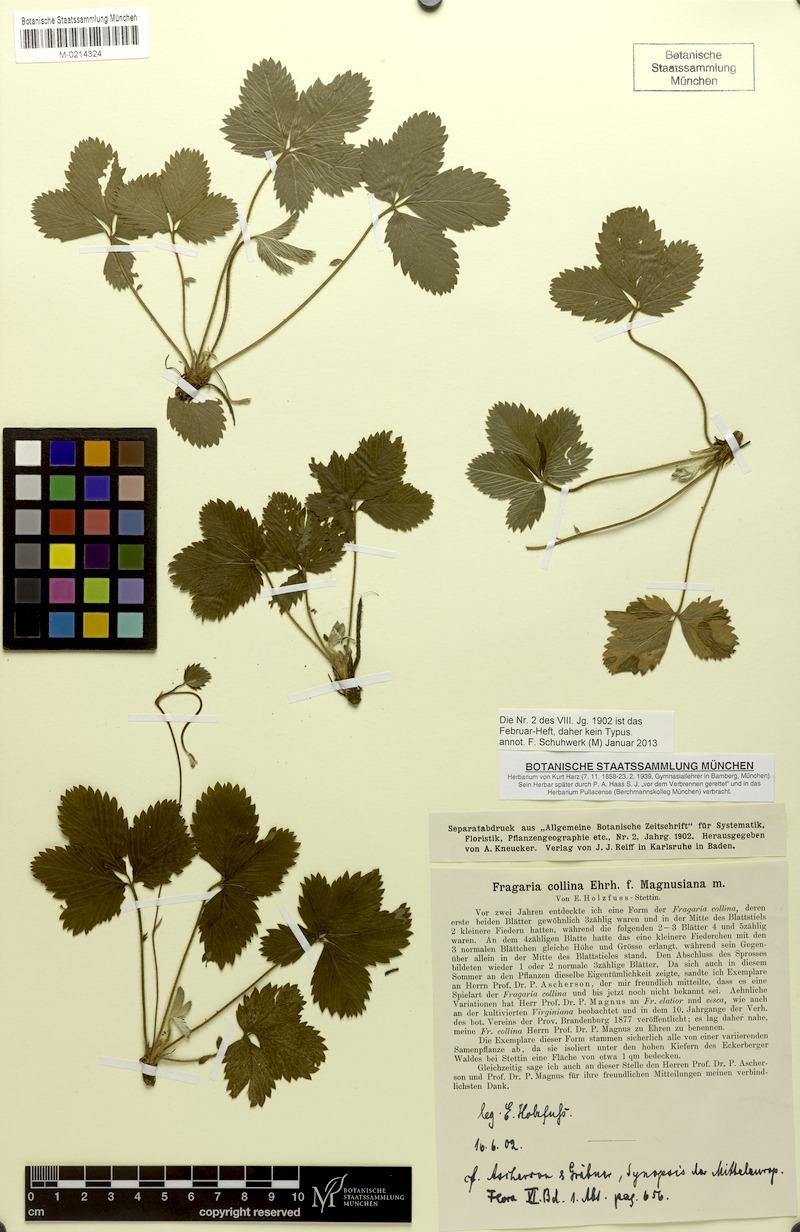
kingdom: Plantae
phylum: Tracheophyta
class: Magnoliopsida
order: Rosales
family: Rosaceae
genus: Fragaria
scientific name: Fragaria viridis
